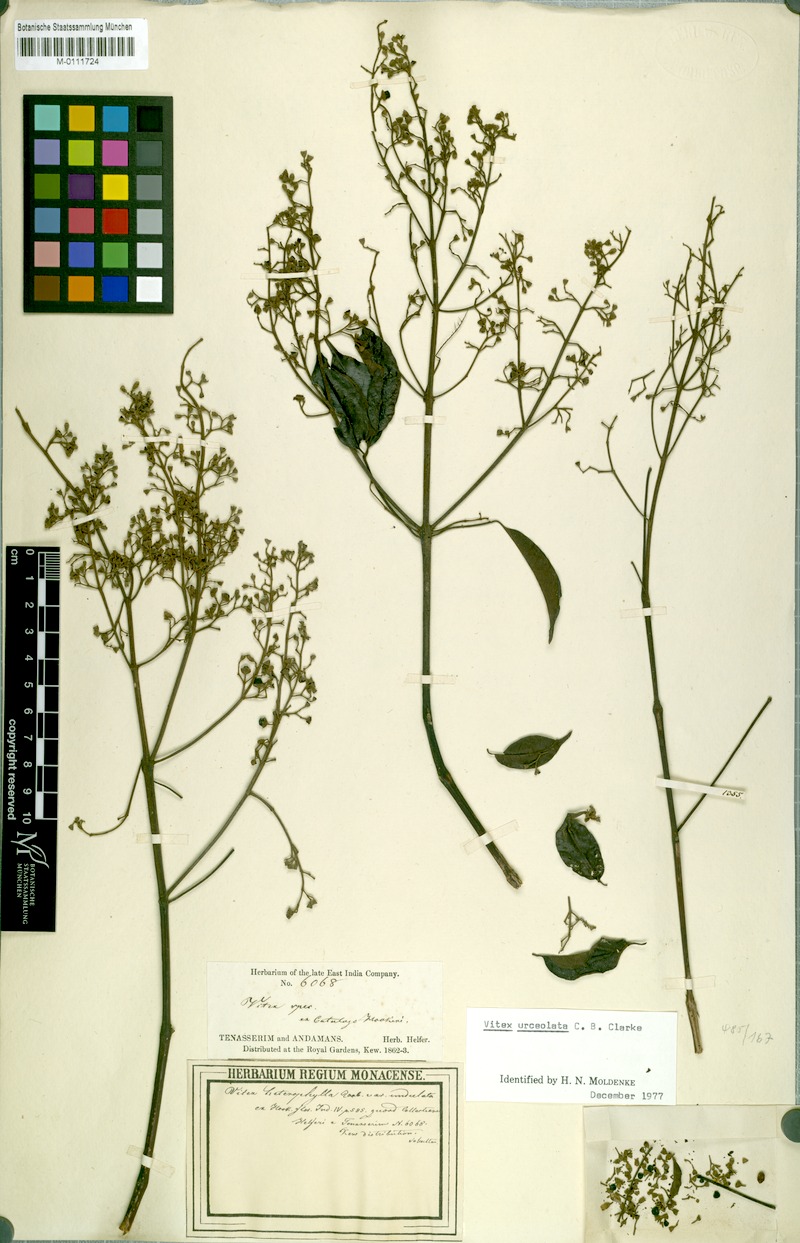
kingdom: Plantae
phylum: Tracheophyta
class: Magnoliopsida
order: Lamiales
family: Lamiaceae
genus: Vitex
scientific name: Vitex quinata
